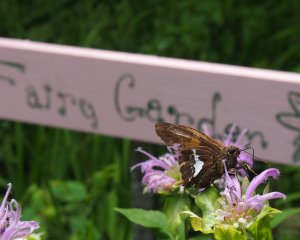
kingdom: Animalia
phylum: Arthropoda
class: Insecta
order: Lepidoptera
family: Hesperiidae
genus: Epargyreus
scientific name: Epargyreus clarus
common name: Silver-spotted Skipper
